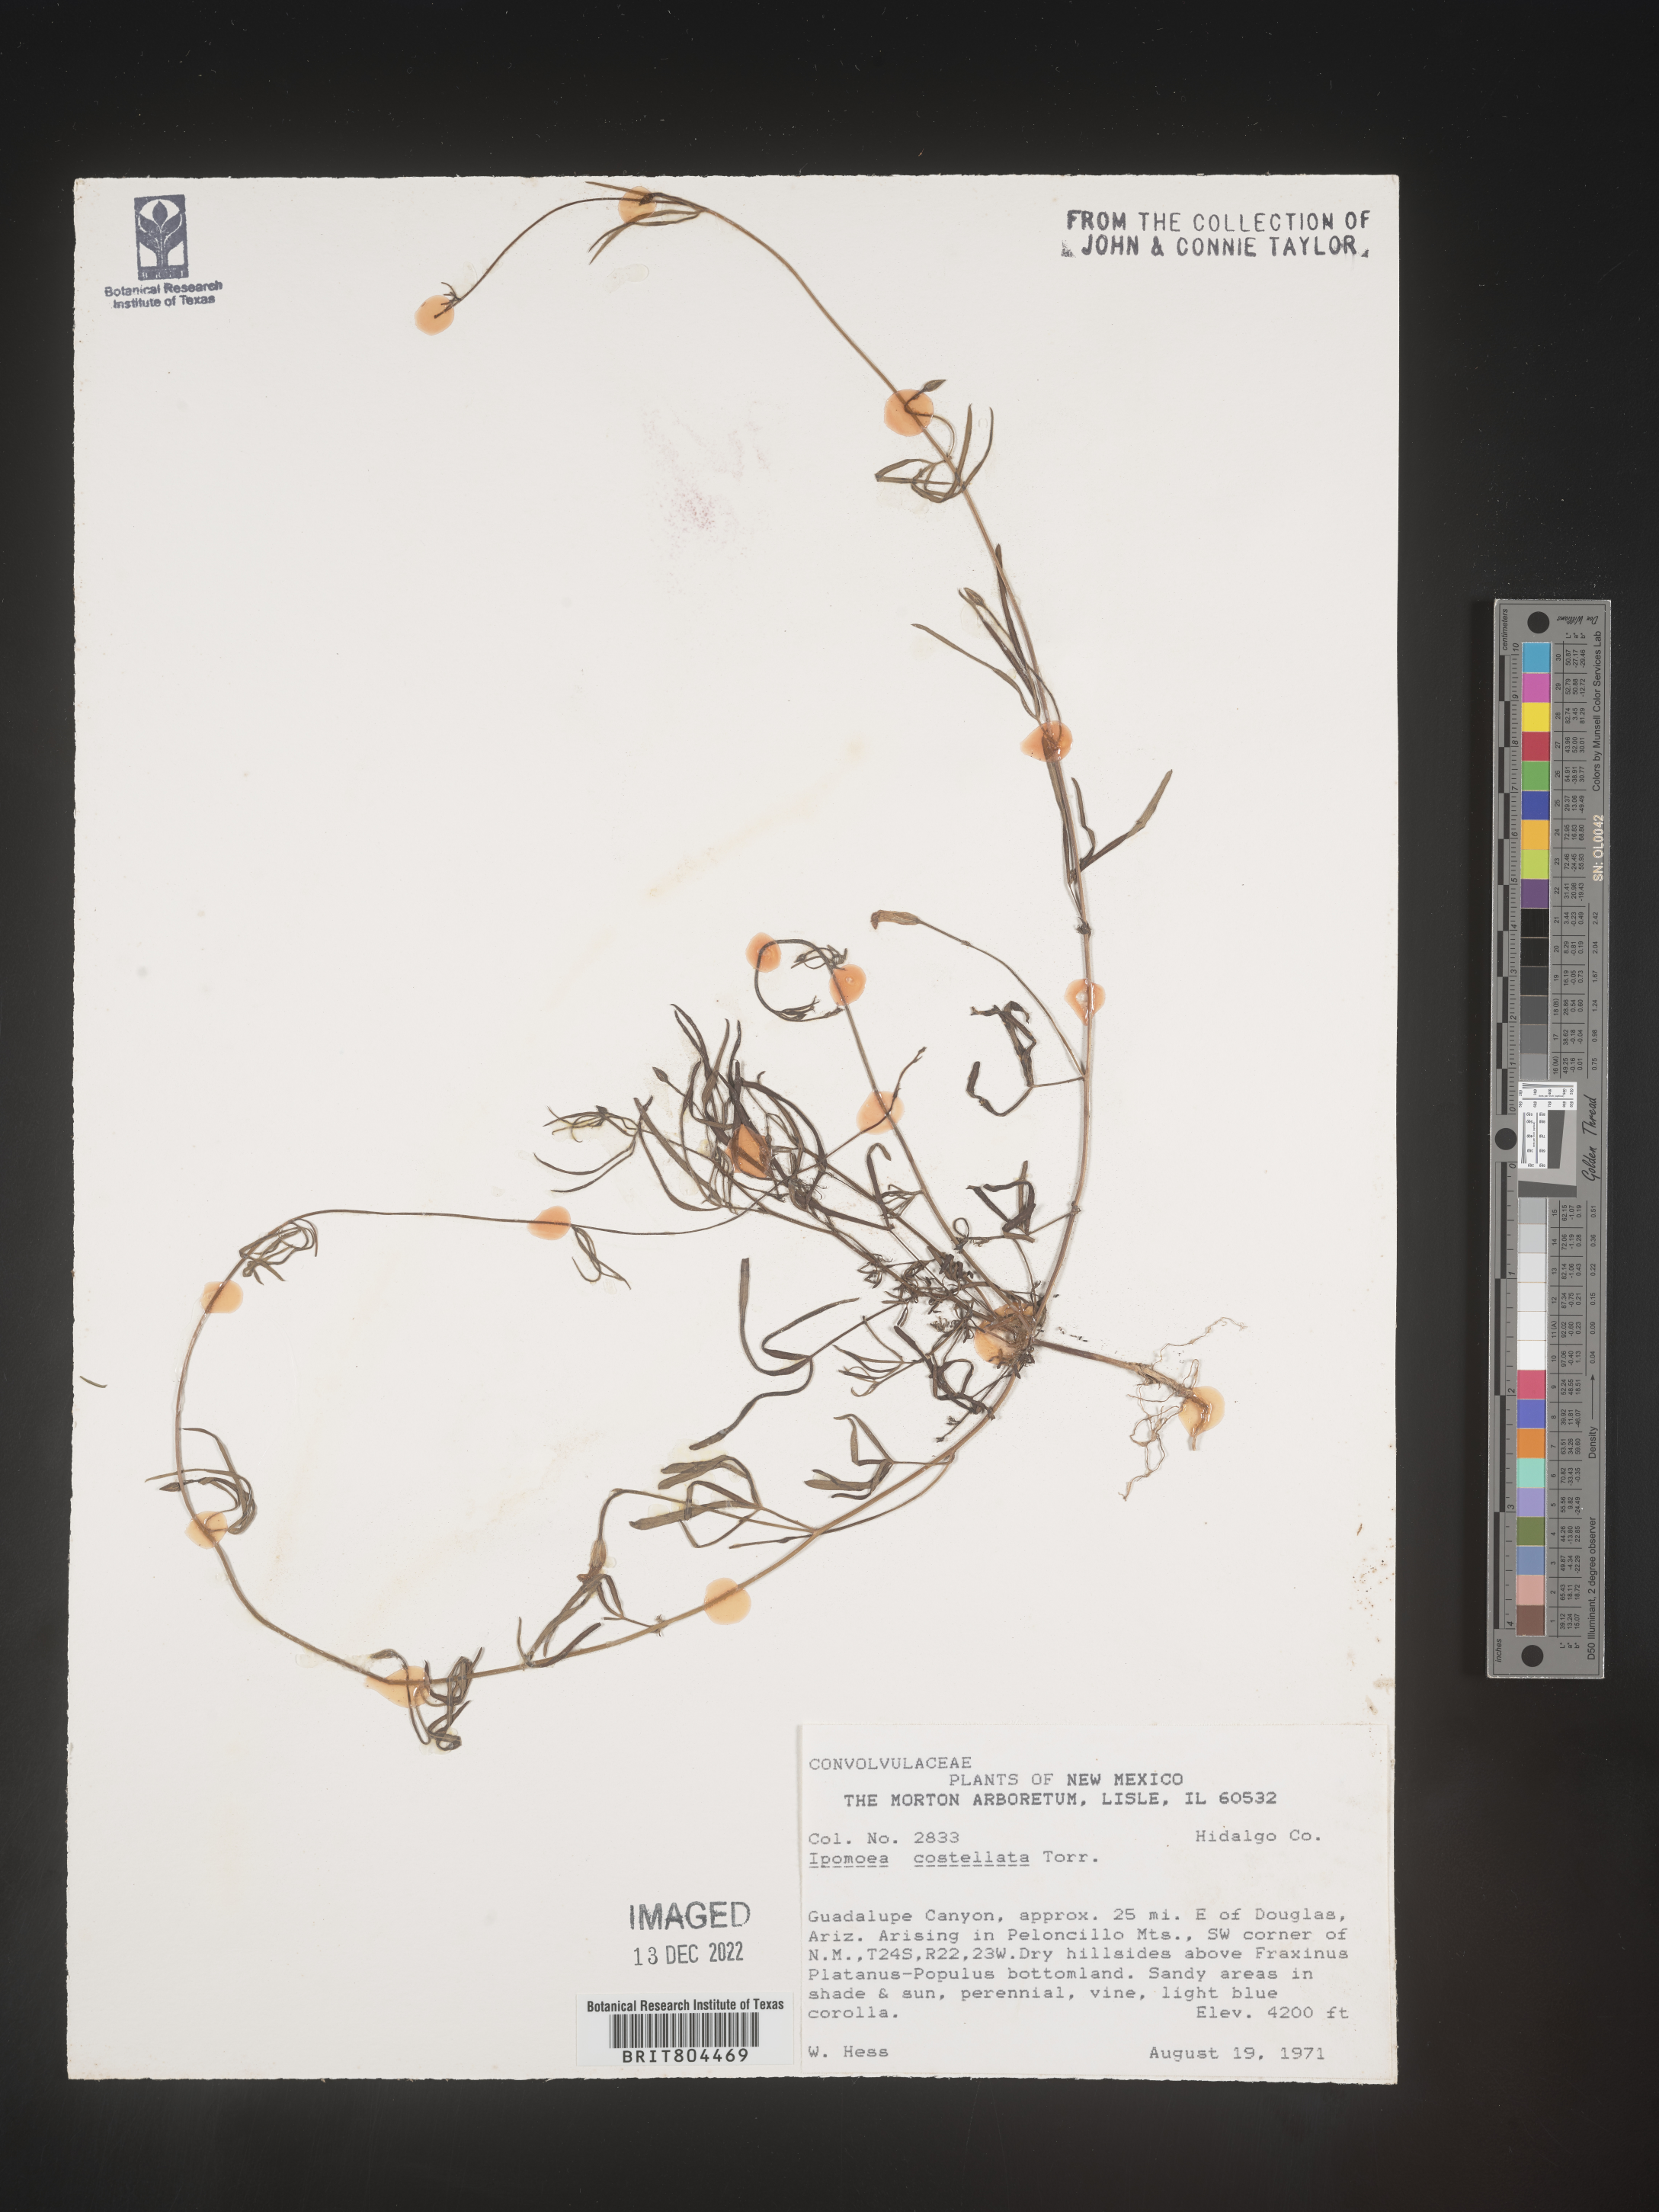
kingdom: Plantae
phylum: Tracheophyta
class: Magnoliopsida
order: Solanales
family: Convolvulaceae
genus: Ipomoea
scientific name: Ipomoea costellata
